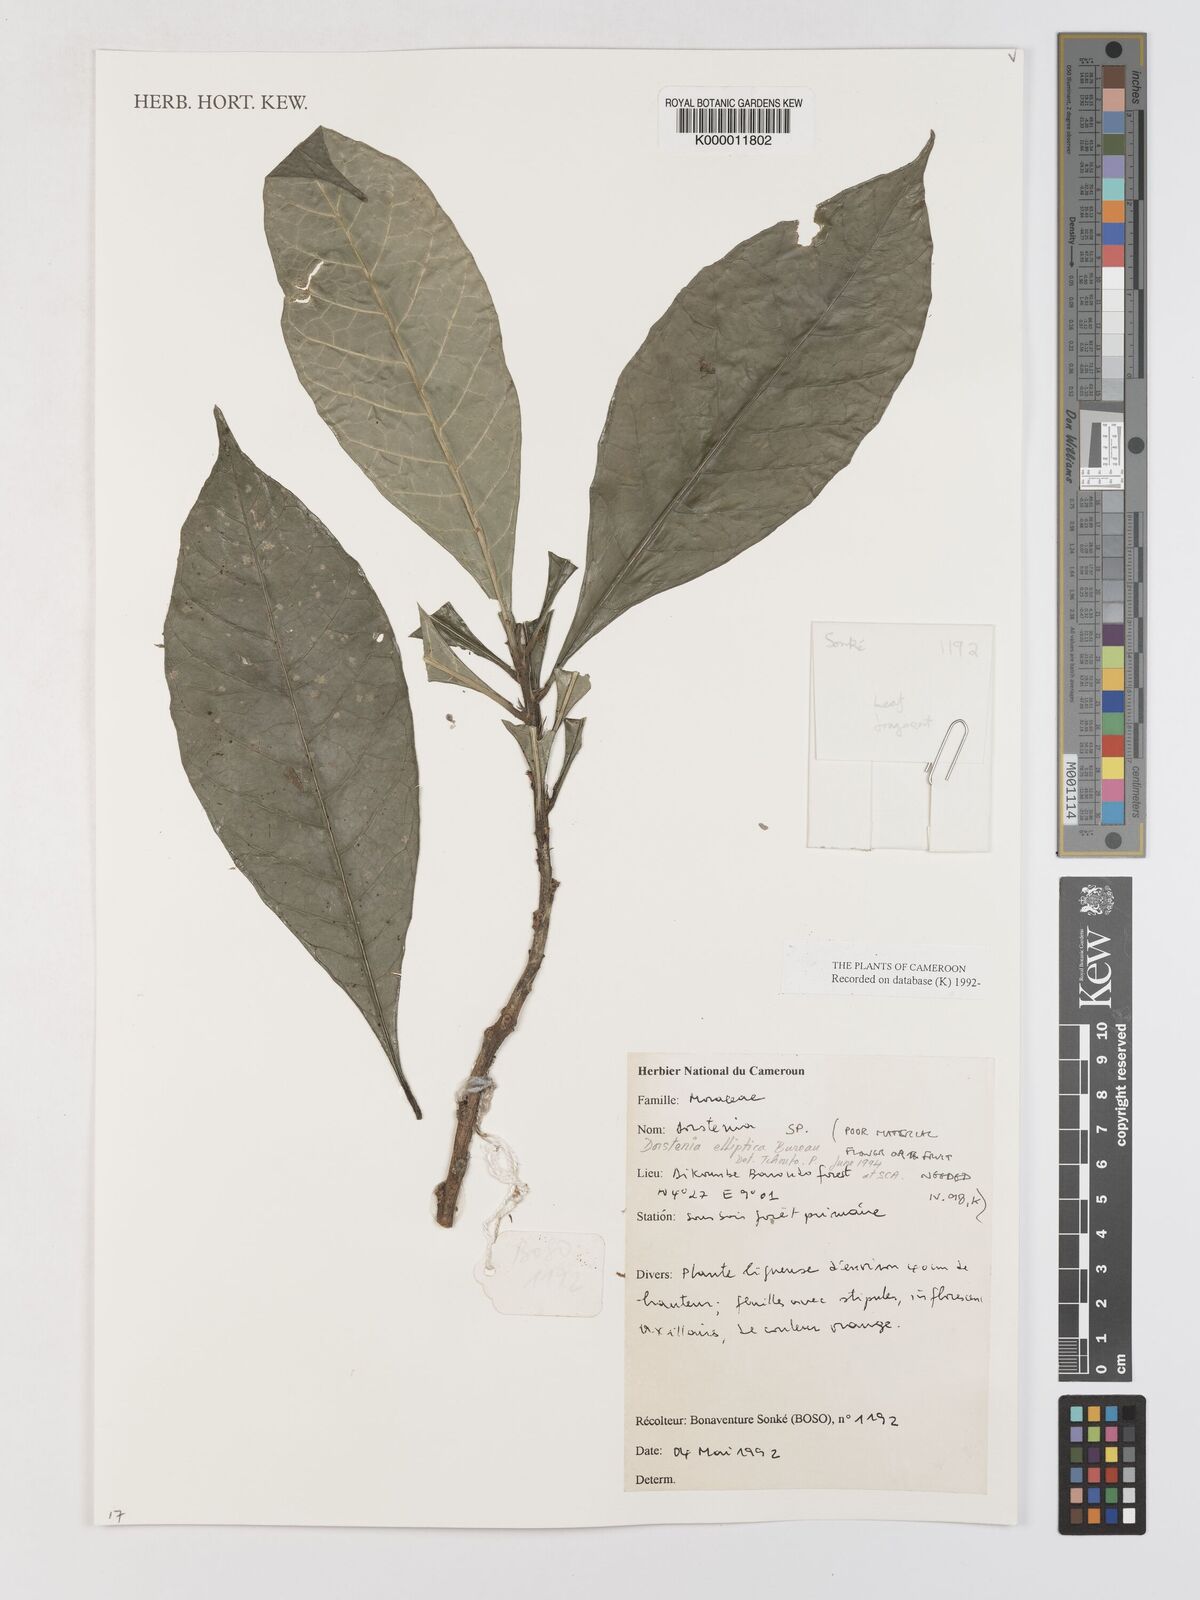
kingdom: Plantae
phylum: Tracheophyta
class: Magnoliopsida
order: Rosales
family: Moraceae
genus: Dorstenia
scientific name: Dorstenia elliptica
